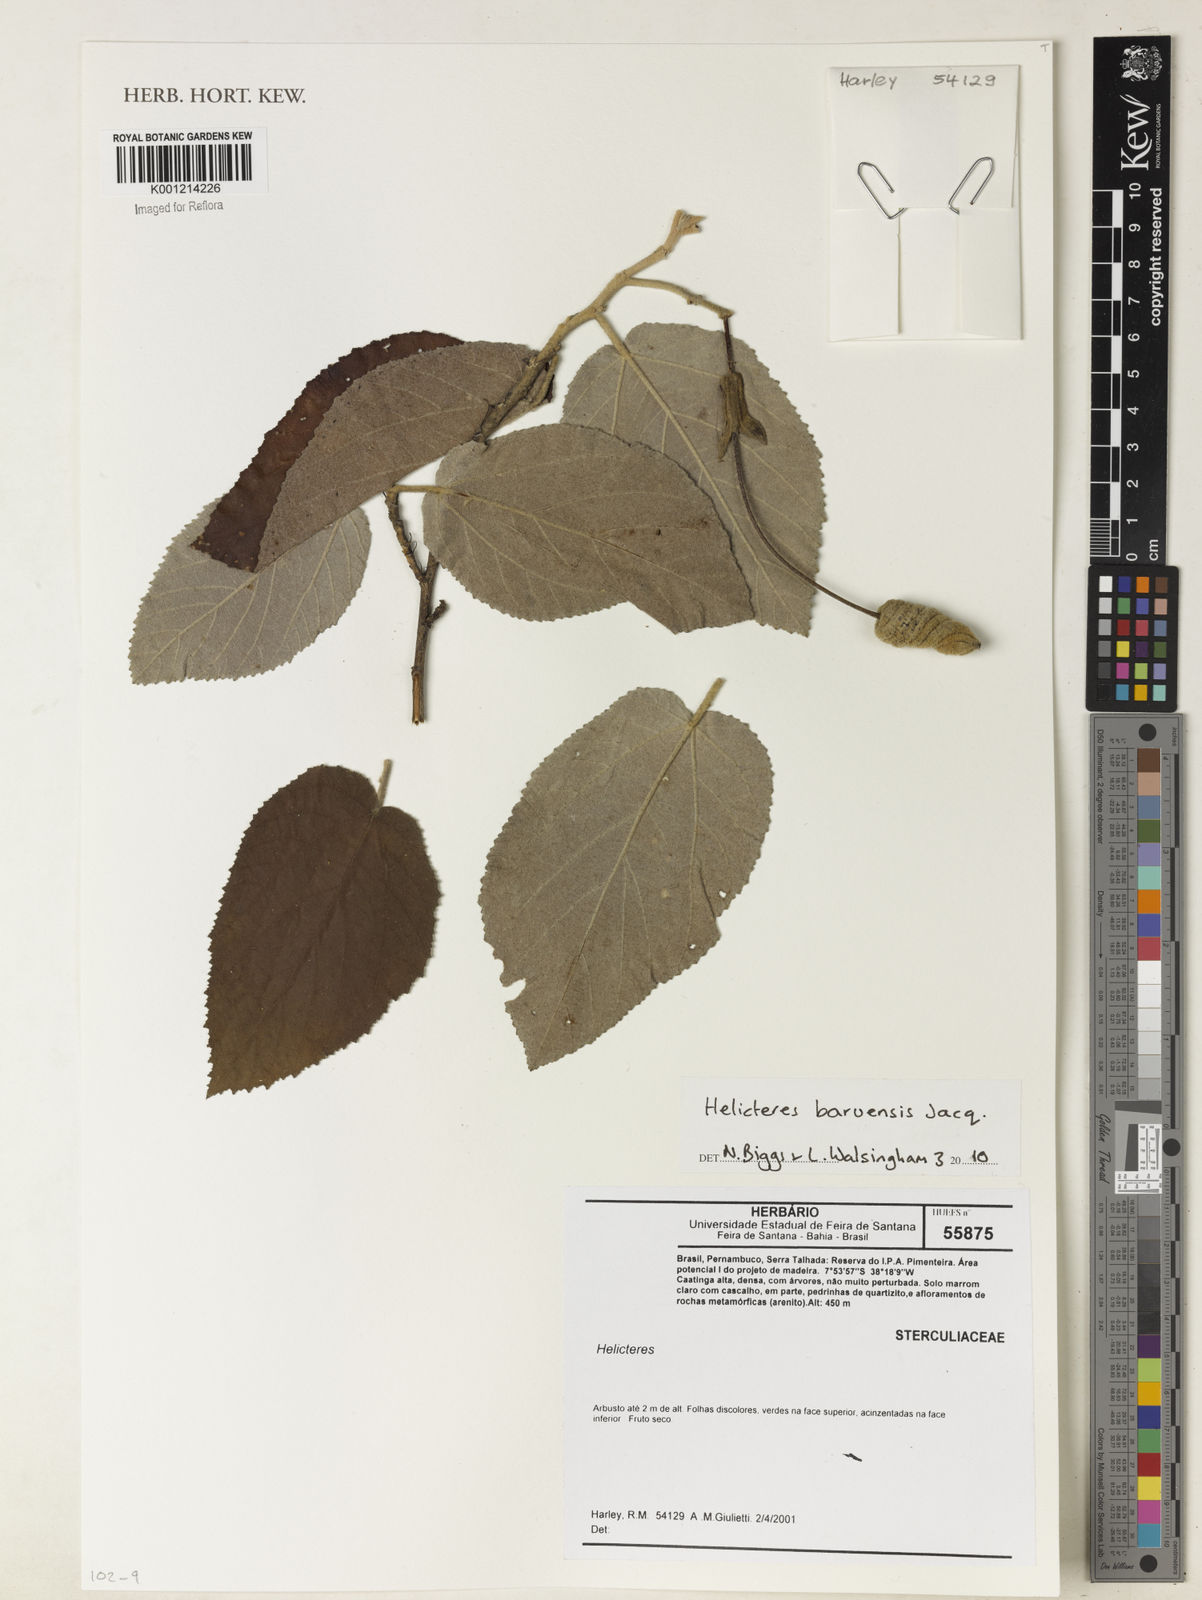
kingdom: Plantae
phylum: Tracheophyta
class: Magnoliopsida
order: Malvales
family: Malvaceae
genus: Helicteres
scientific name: Helicteres baruensis
